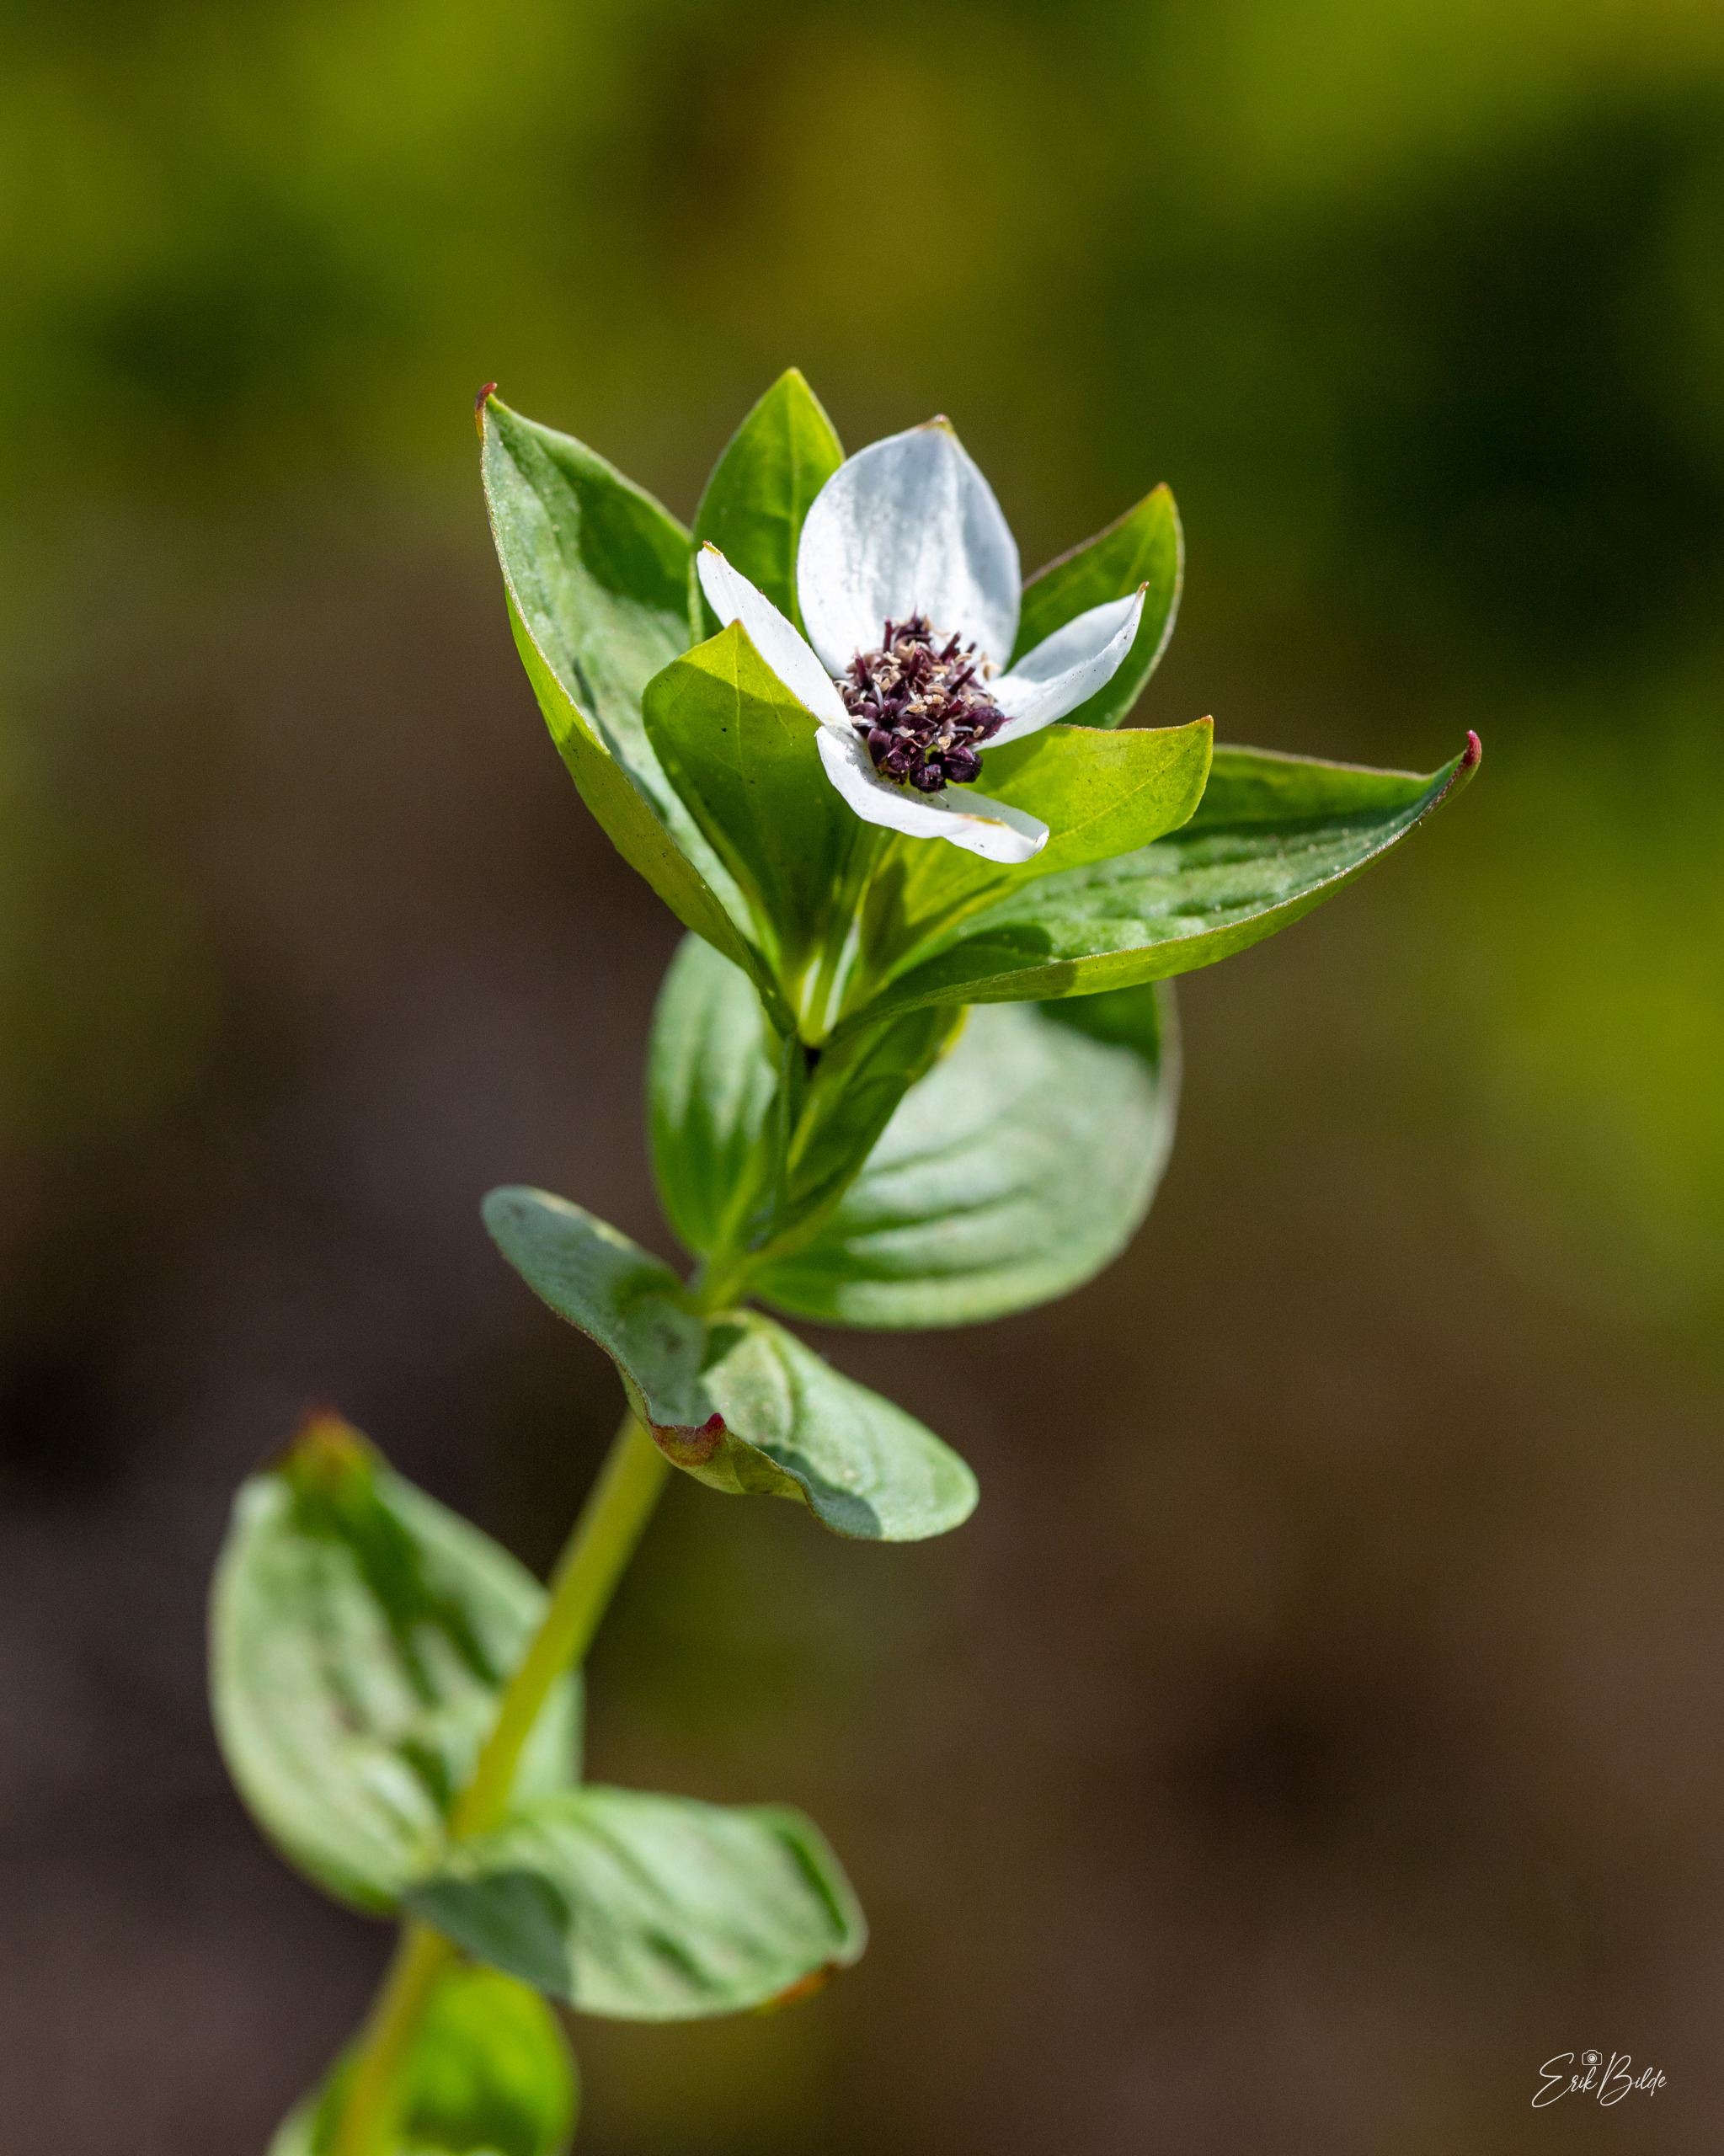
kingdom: Plantae
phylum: Tracheophyta
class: Magnoliopsida
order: Cornales
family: Cornaceae
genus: Cornus
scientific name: Cornus suecica
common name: Hønsebær
